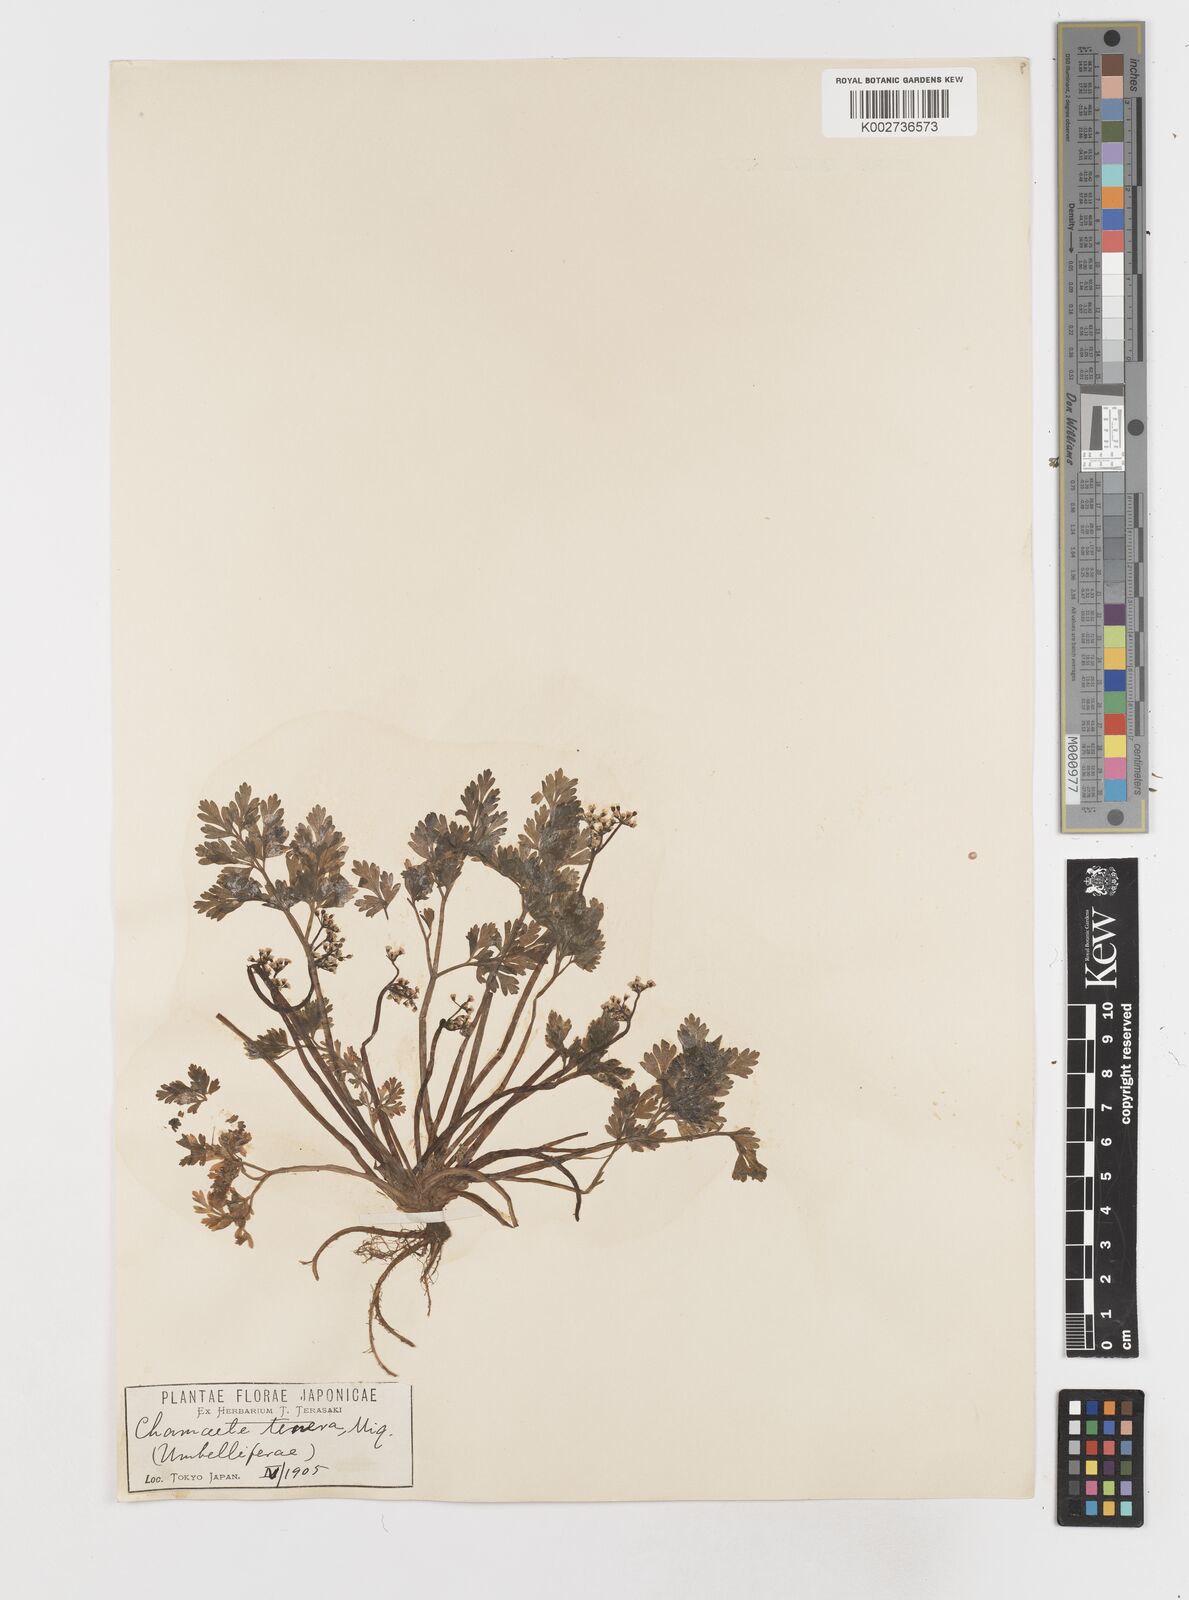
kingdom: Plantae
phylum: Tracheophyta
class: Magnoliopsida
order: Apiales
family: Apiaceae
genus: Aegopodium
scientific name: Aegopodium decumbens
